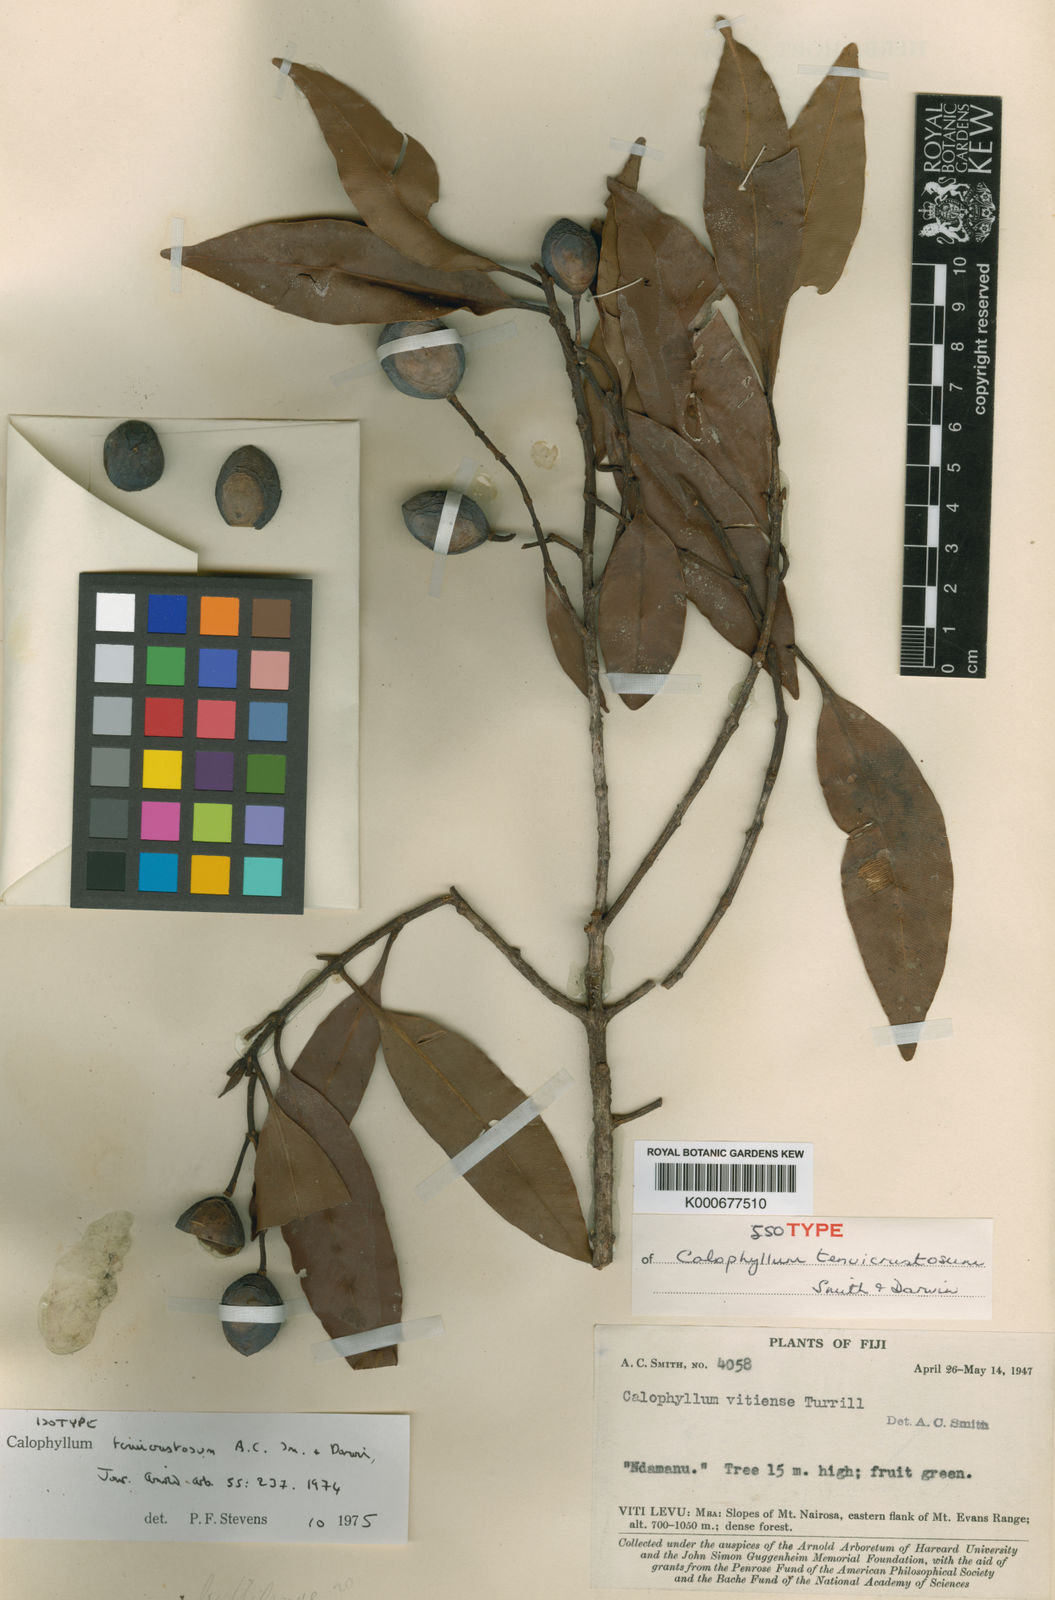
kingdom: Plantae
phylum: Tracheophyta
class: Magnoliopsida
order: Malpighiales
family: Calophyllaceae
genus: Calophyllum
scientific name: Calophyllum vitiense
